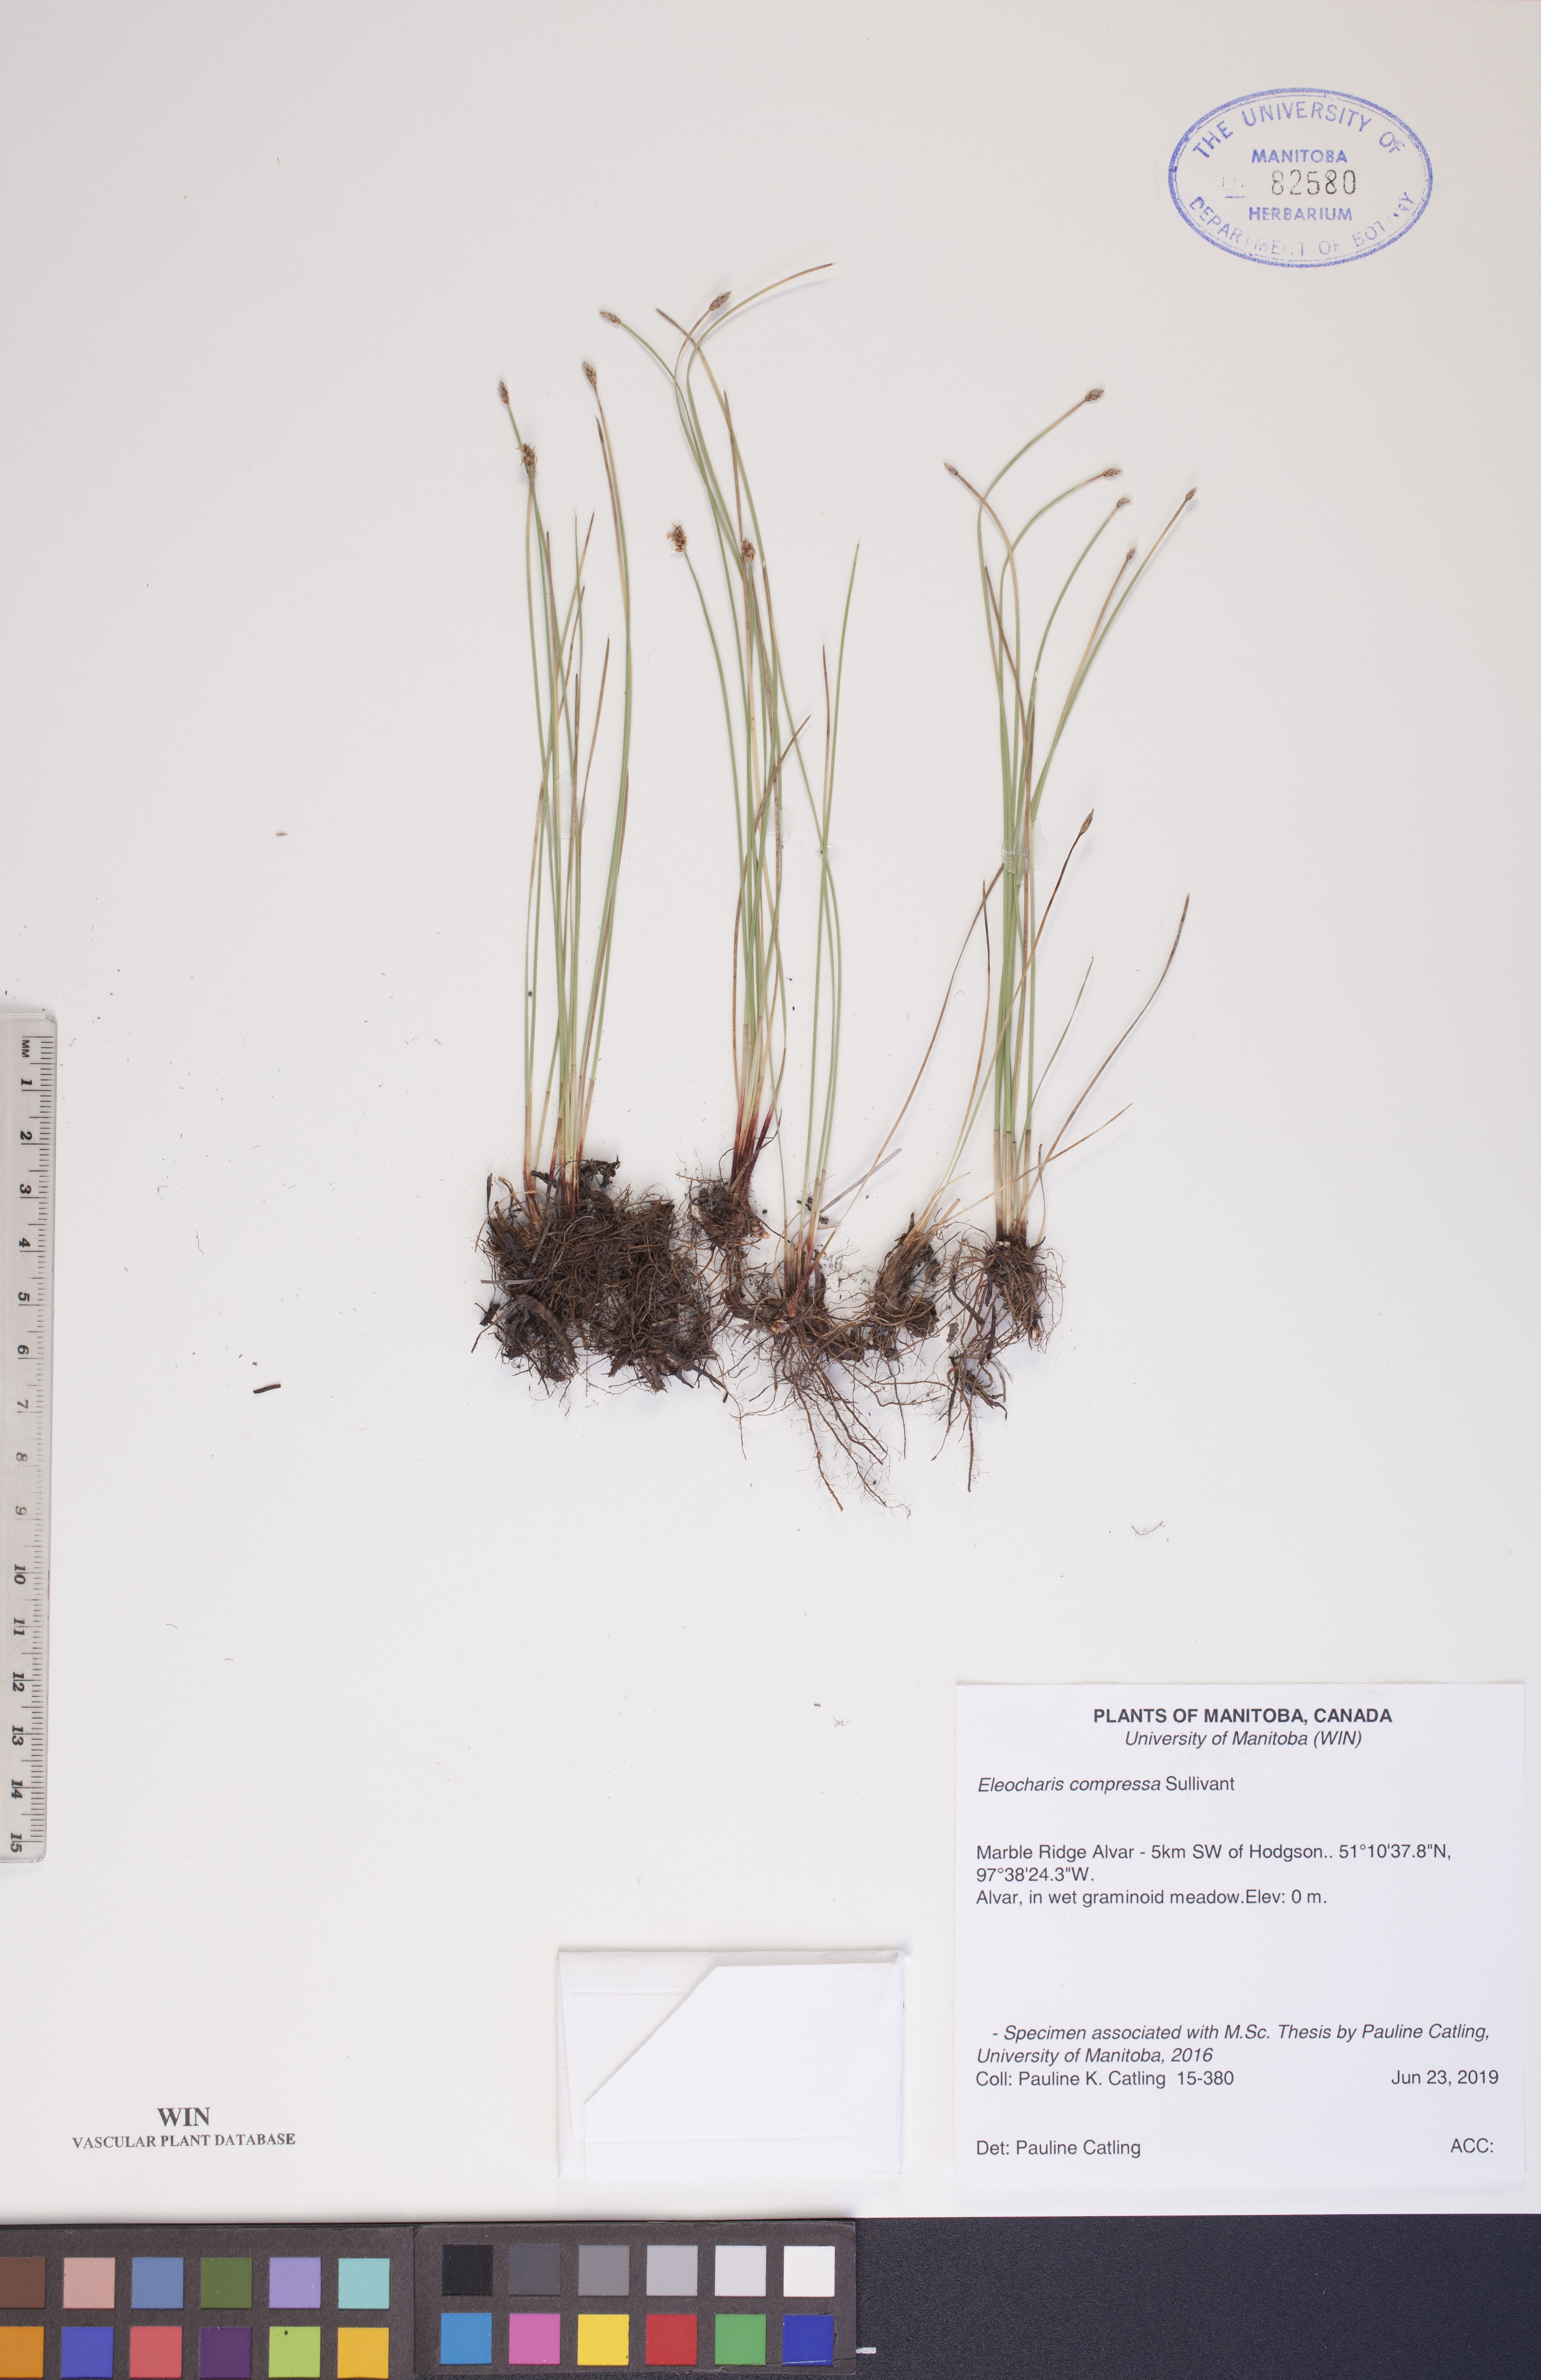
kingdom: Plantae
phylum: Tracheophyta
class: Liliopsida
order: Poales
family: Cyperaceae
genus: Eleocharis
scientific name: Eleocharis compressa
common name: Flat-stem spike-rush
